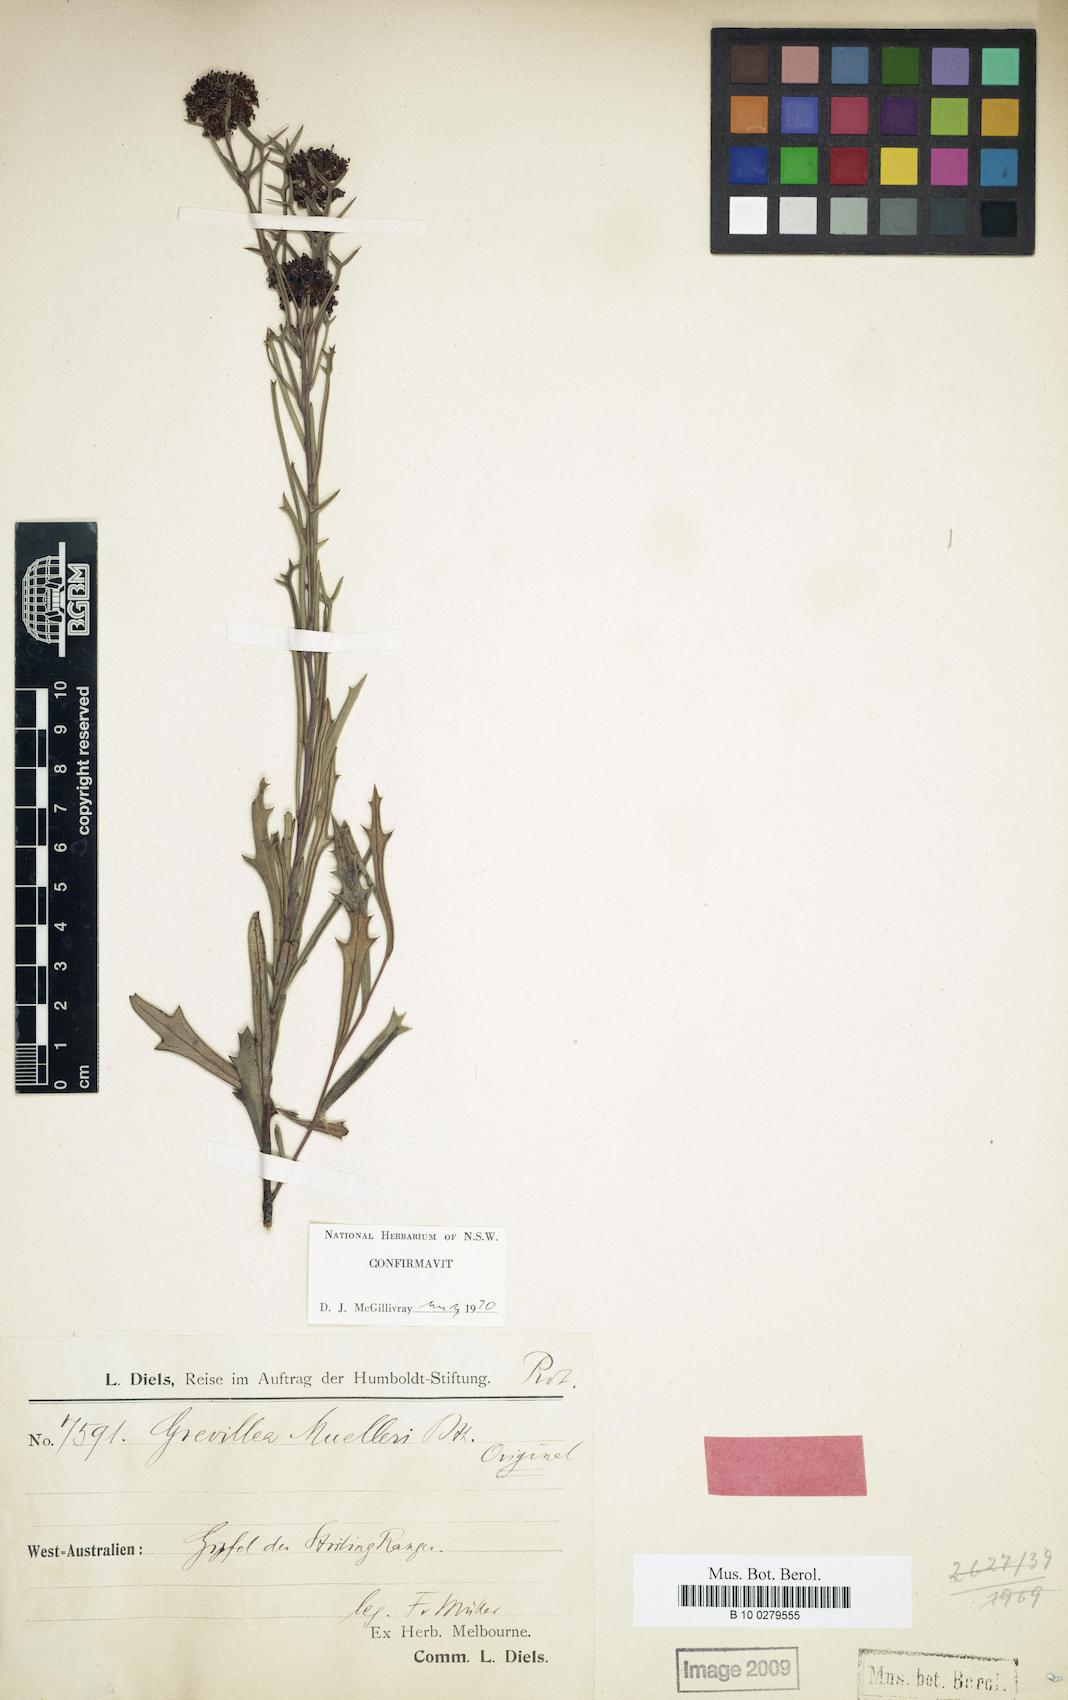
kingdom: Plantae
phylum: Tracheophyta
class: Magnoliopsida
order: Proteales
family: Proteaceae
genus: Grevillea
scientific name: Grevillea muelleri
